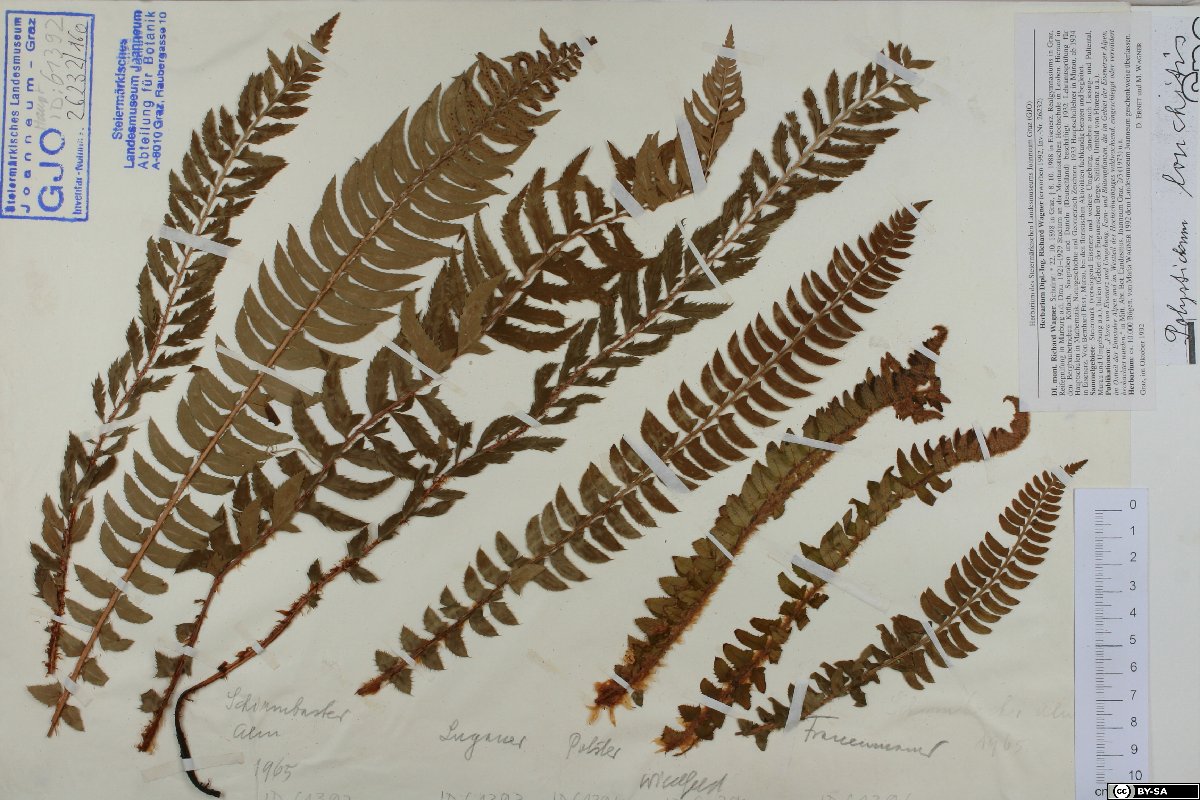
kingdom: Plantae
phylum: Tracheophyta
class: Polypodiopsida
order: Polypodiales
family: Dryopteridaceae
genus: Polystichum
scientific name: Polystichum lonchitis
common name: Holly fern
